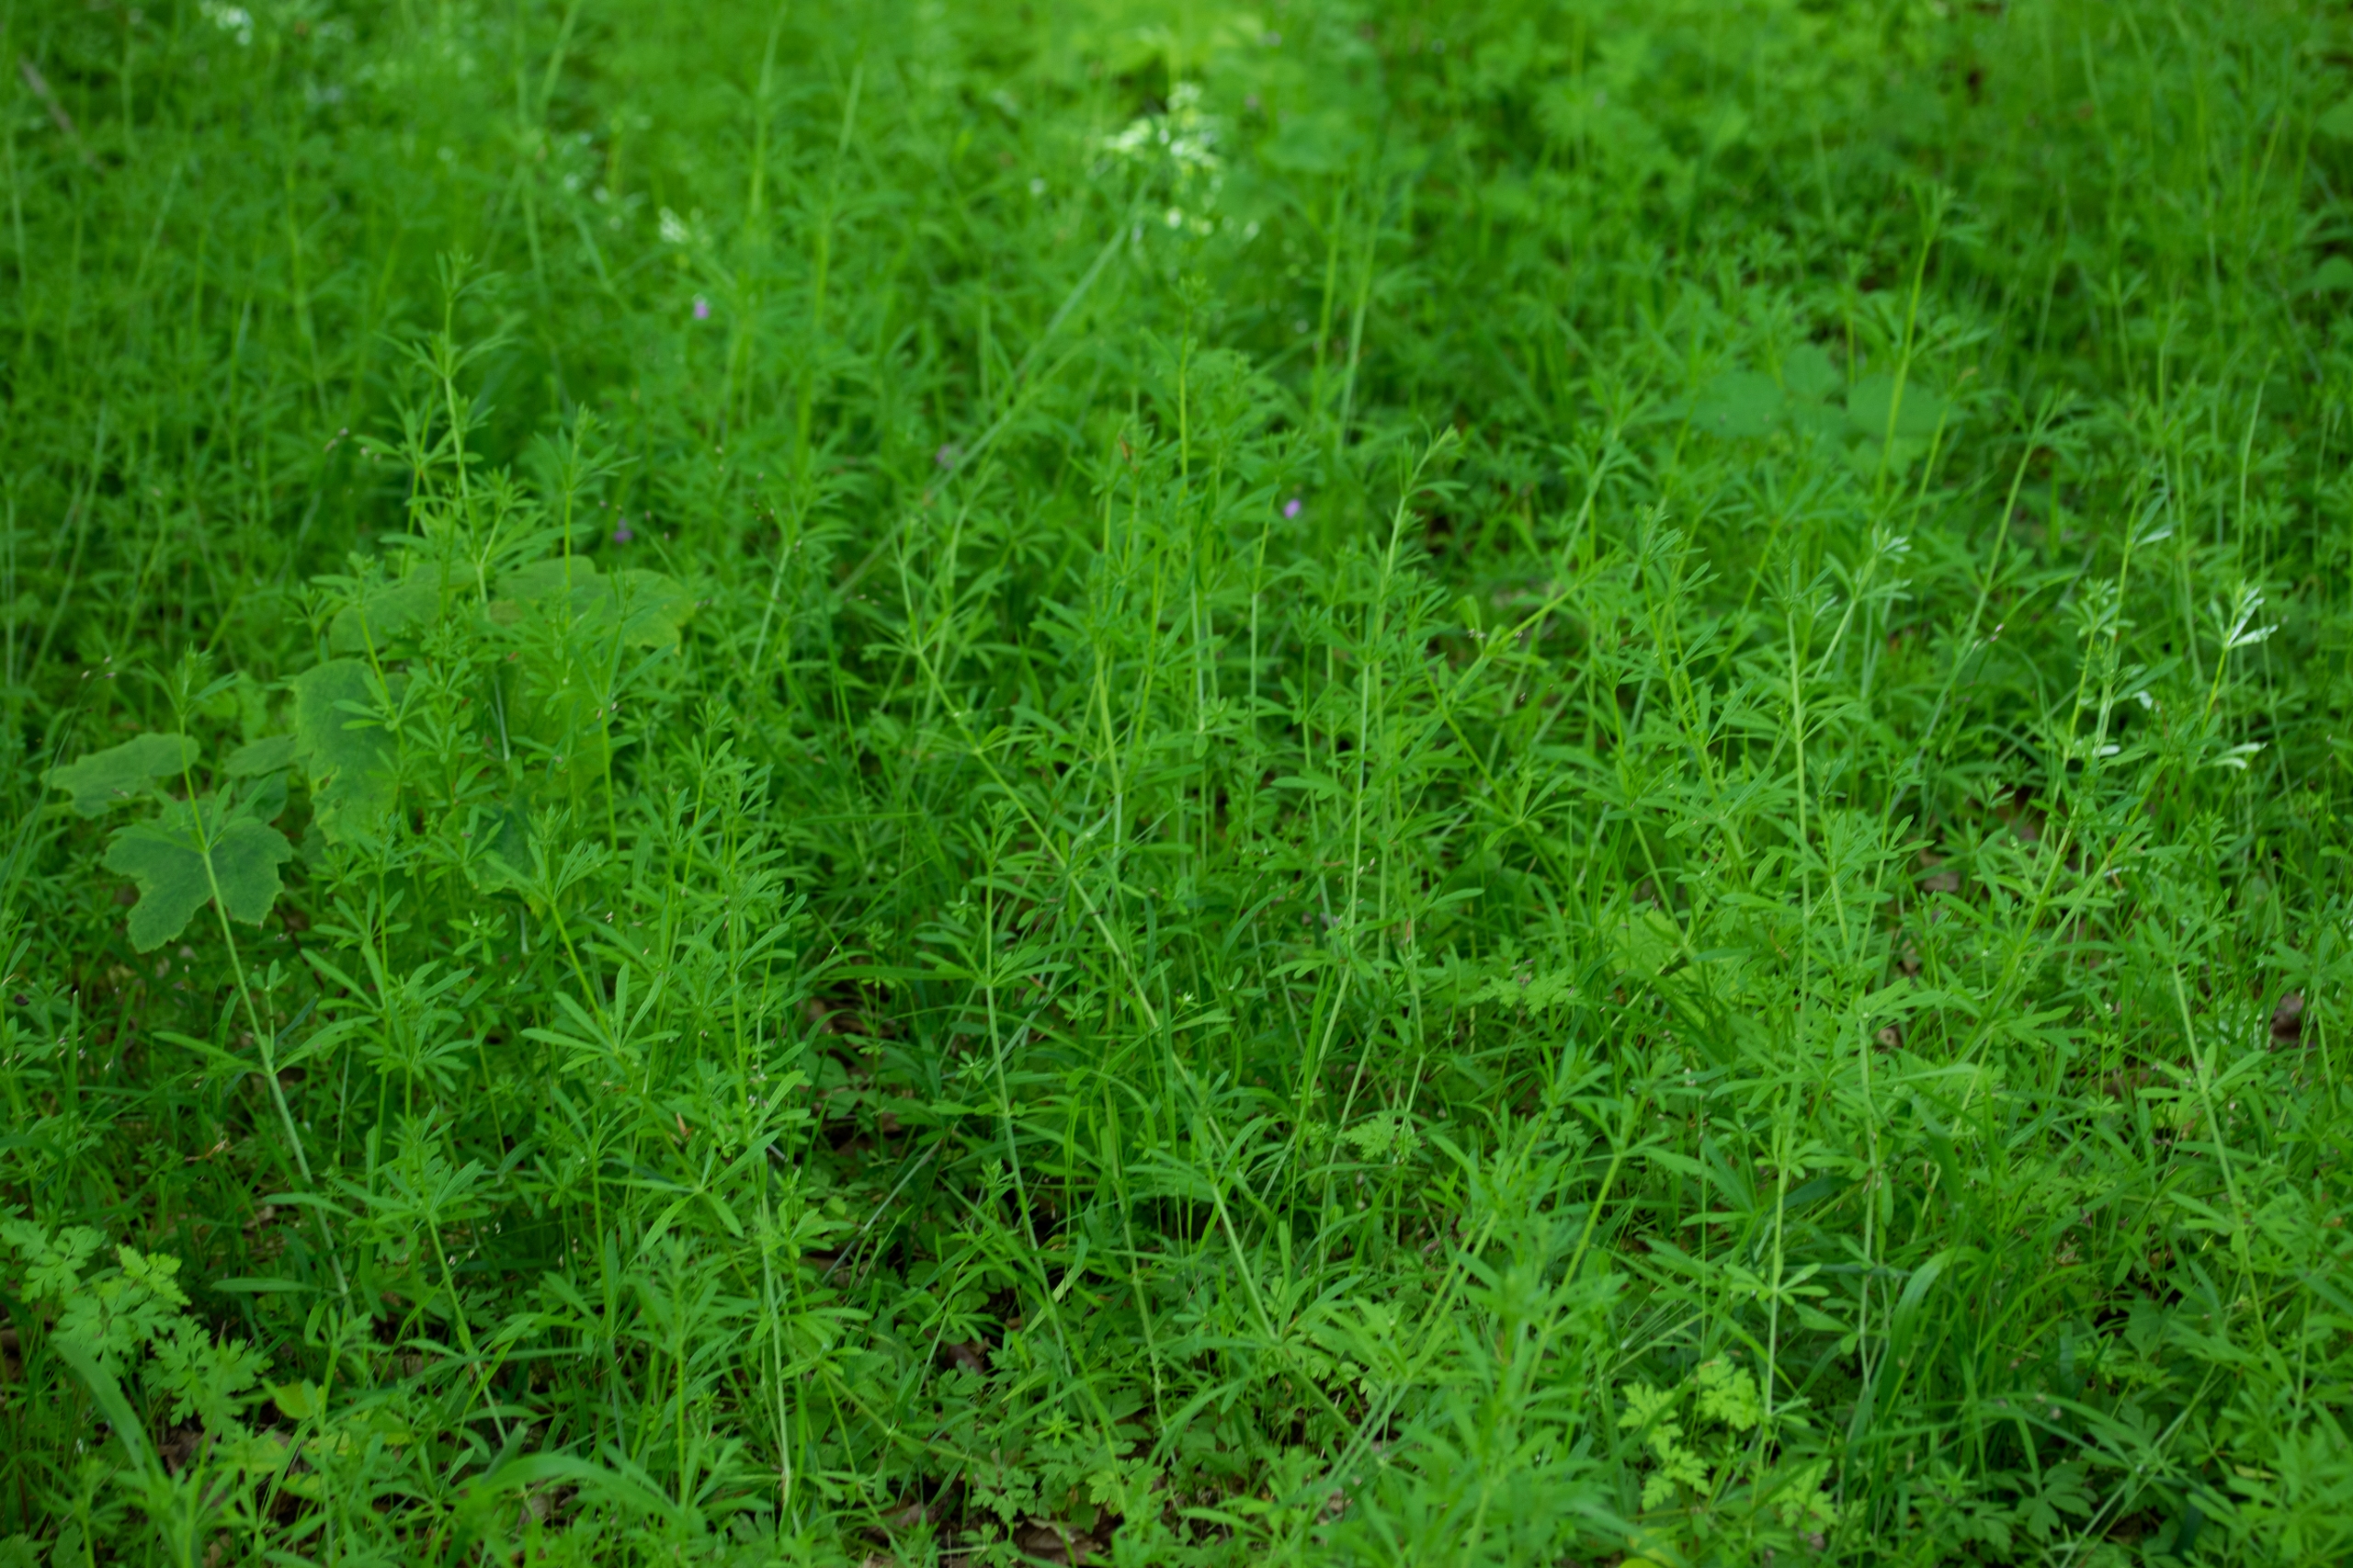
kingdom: Plantae
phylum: Tracheophyta
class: Magnoliopsida
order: Gentianales
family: Rubiaceae
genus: Galium
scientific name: Galium aparine
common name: Burre-snerre
